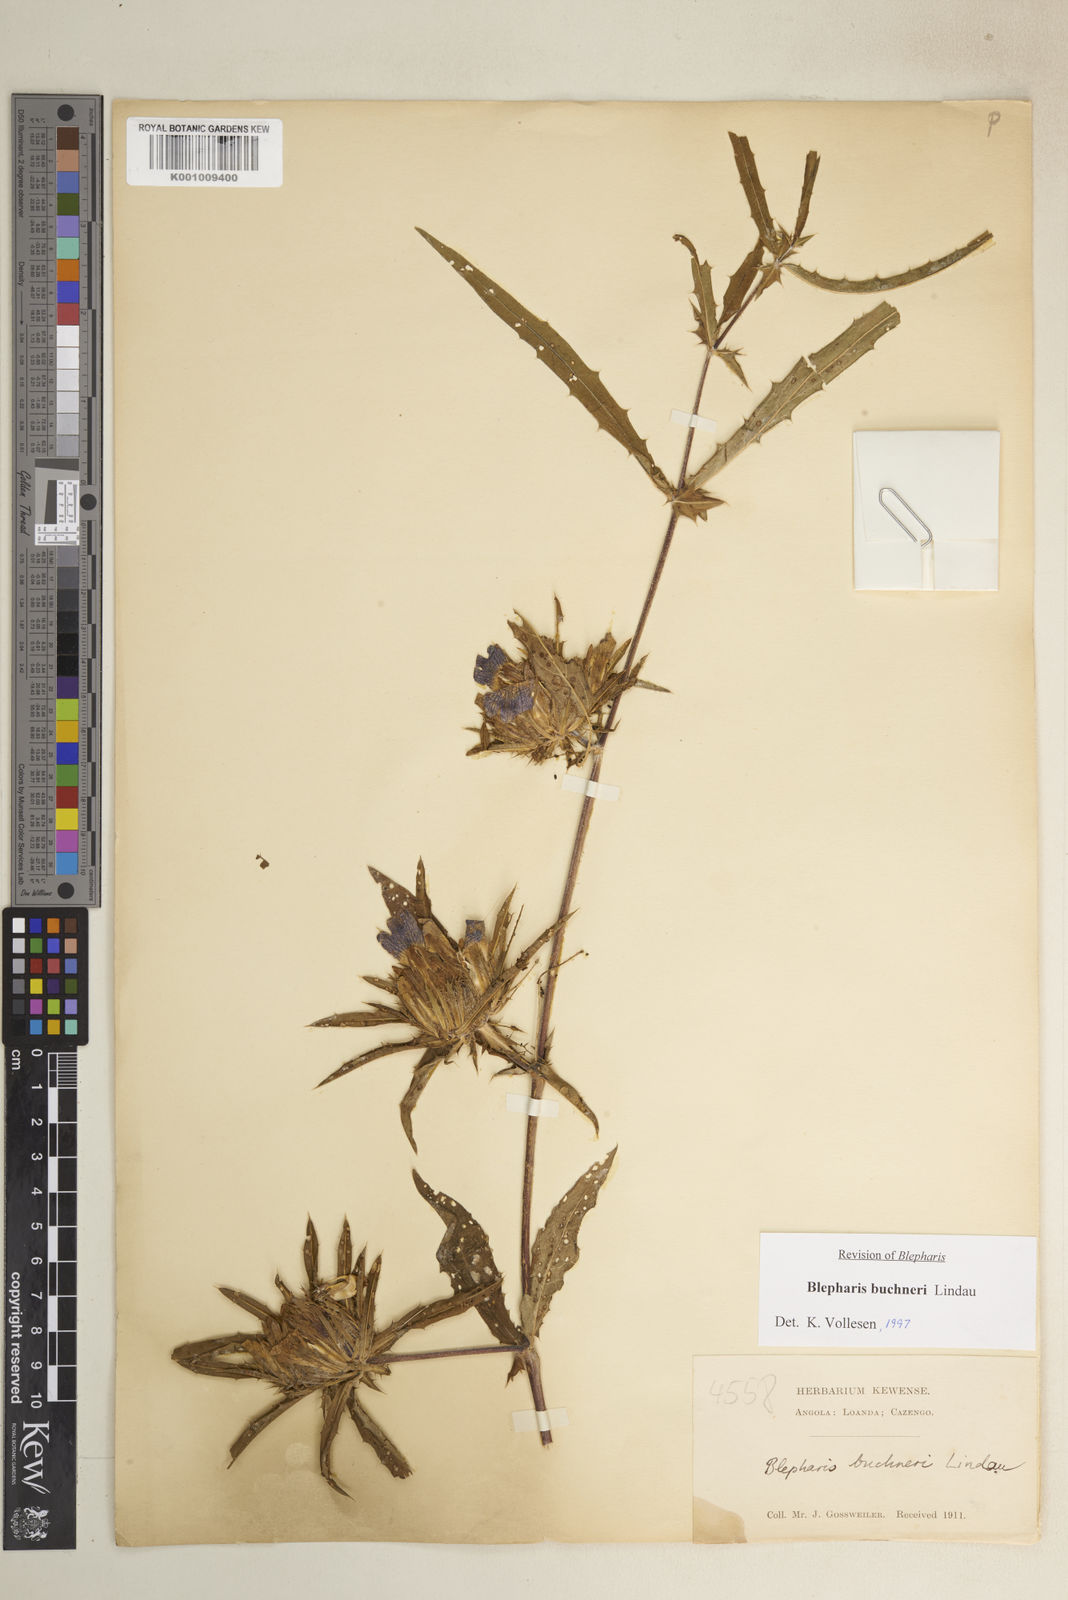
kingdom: Plantae
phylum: Tracheophyta
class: Magnoliopsida
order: Lamiales
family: Acanthaceae
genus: Blepharis
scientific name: Blepharis buchneri
